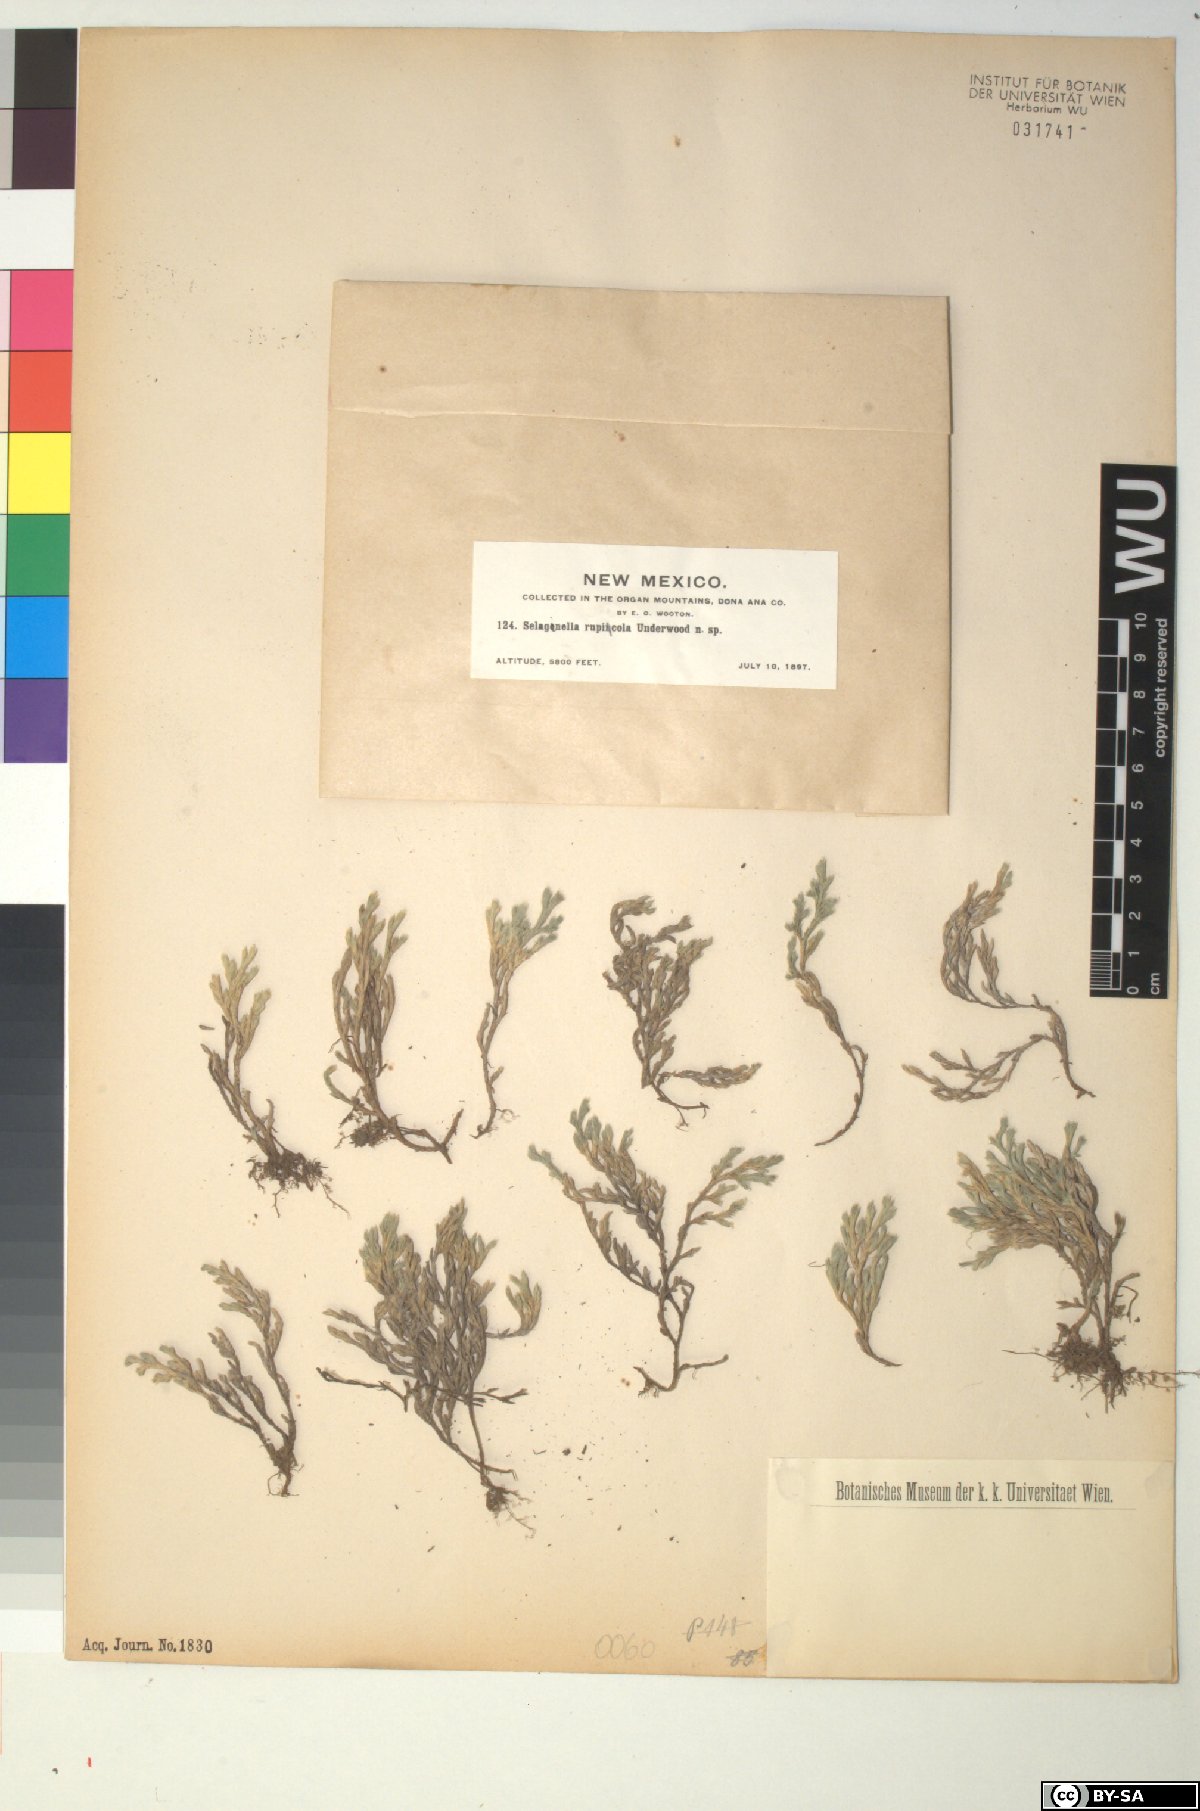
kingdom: Plantae
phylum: Tracheophyta
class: Lycopodiopsida
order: Selaginellales
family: Selaginellaceae
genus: Selaginella
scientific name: Selaginella rupincola
